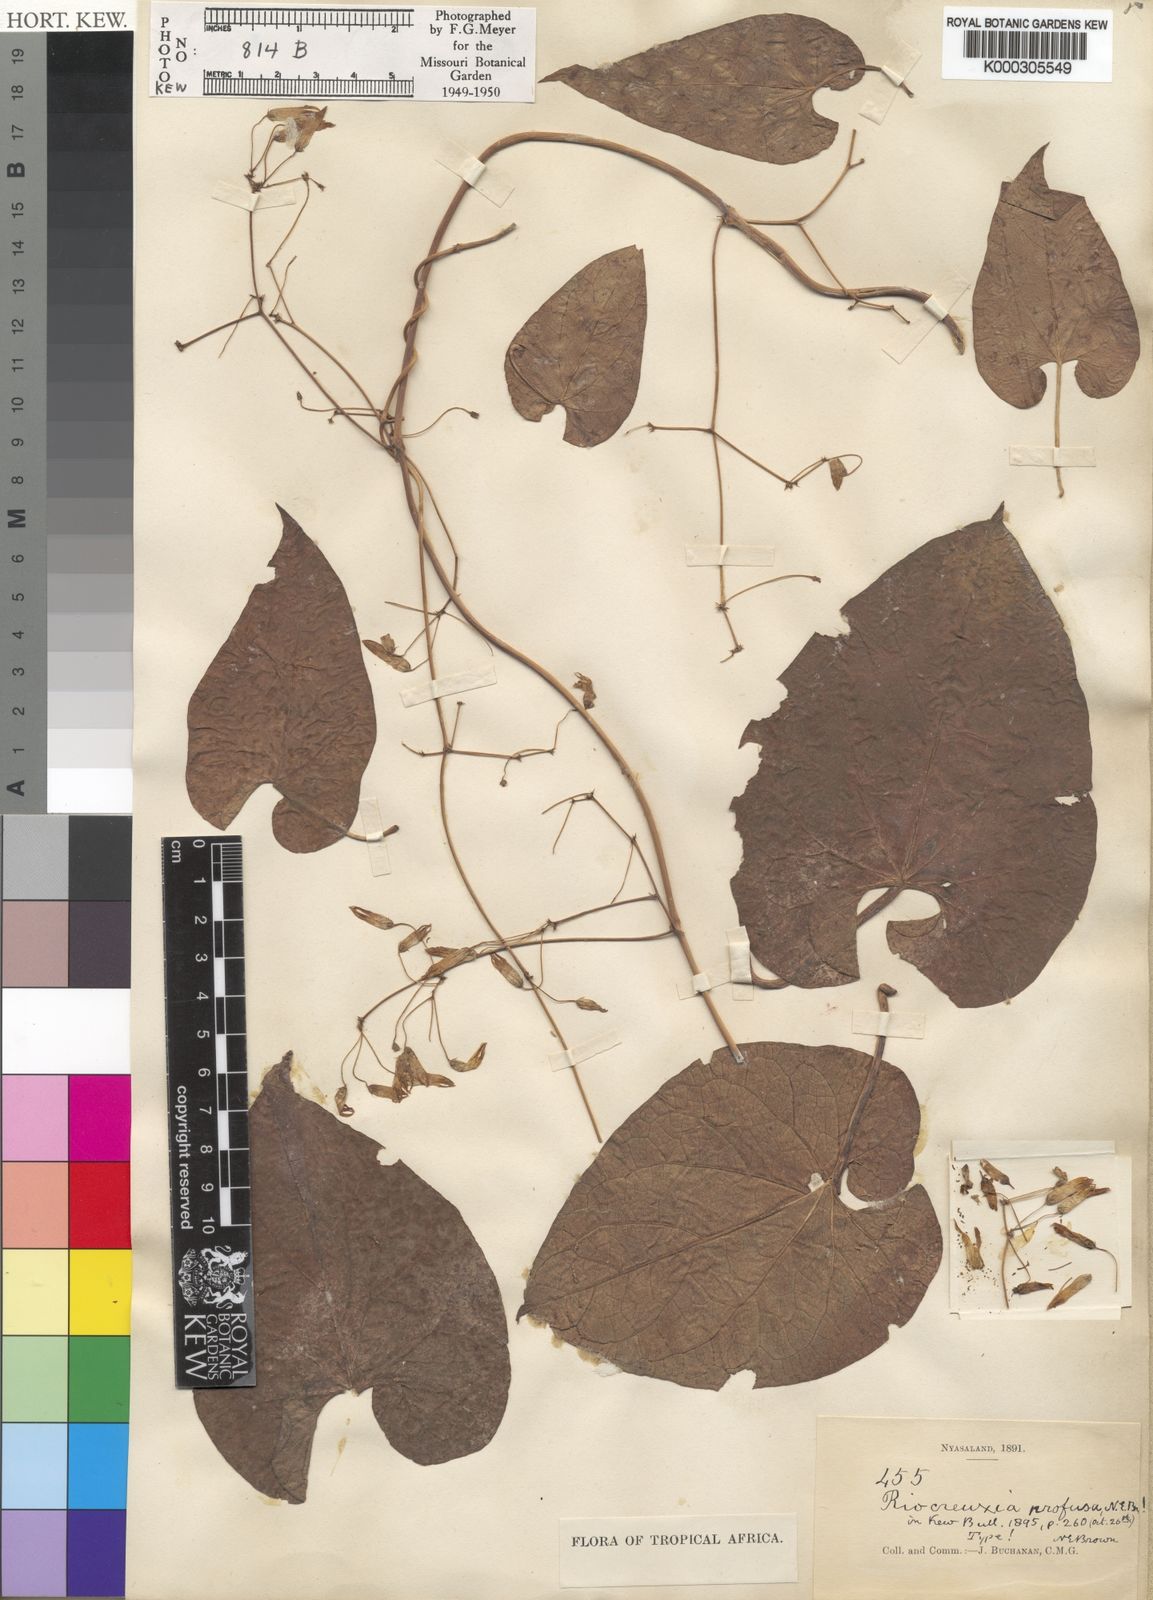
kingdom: Plantae
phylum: Tracheophyta
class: Magnoliopsida
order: Gentianales
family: Apocynaceae
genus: Riocreuxia
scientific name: Riocreuxia polyantha
